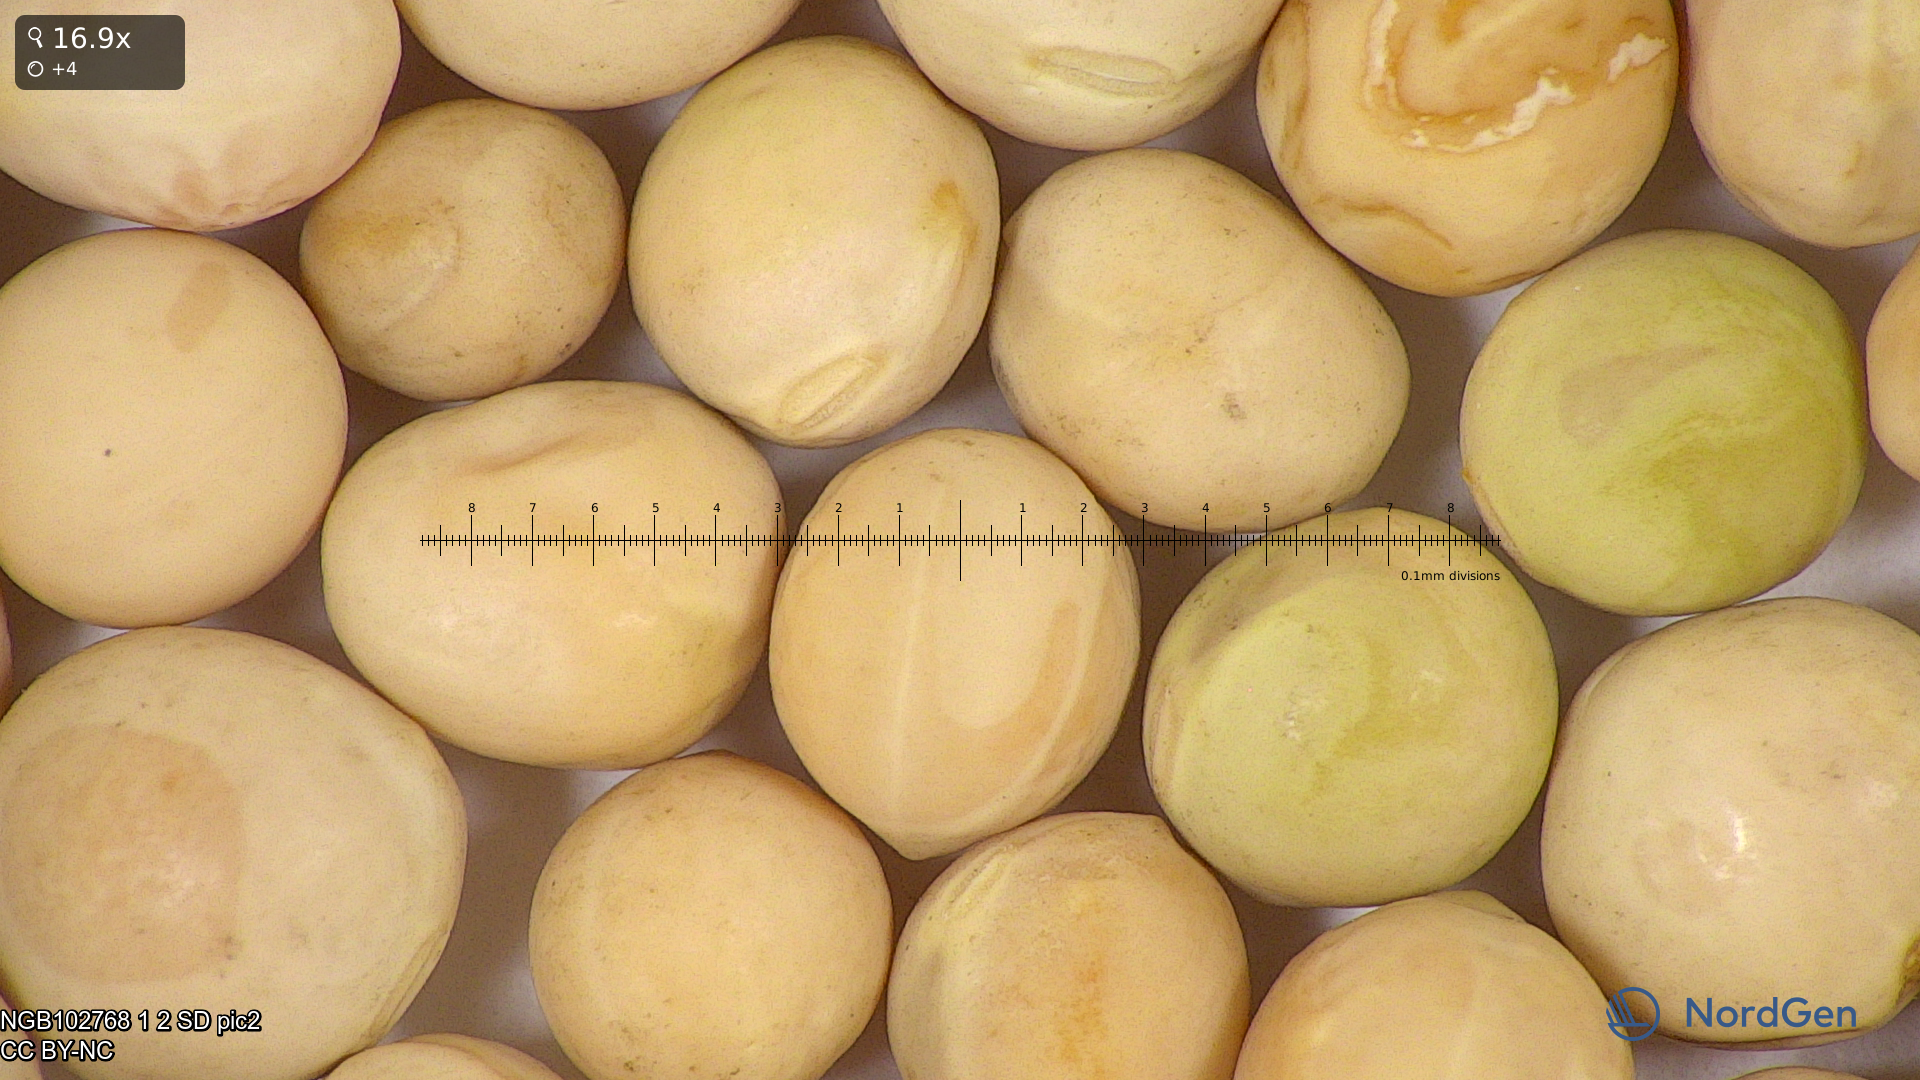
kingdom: Plantae
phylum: Tracheophyta
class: Magnoliopsida
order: Fabales
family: Fabaceae
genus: Lathyrus
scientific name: Lathyrus oleraceus
